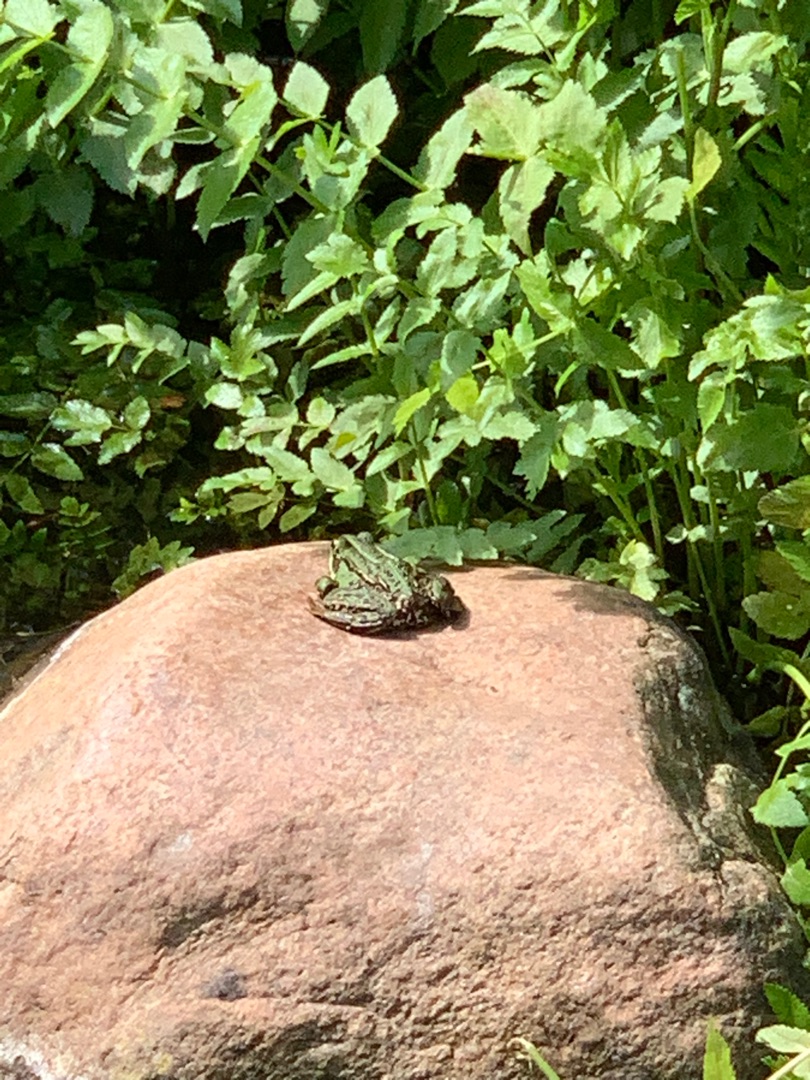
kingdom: Animalia
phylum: Chordata
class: Amphibia
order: Anura
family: Ranidae
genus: Pelophylax
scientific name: Pelophylax lessonae
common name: Grøn frø
